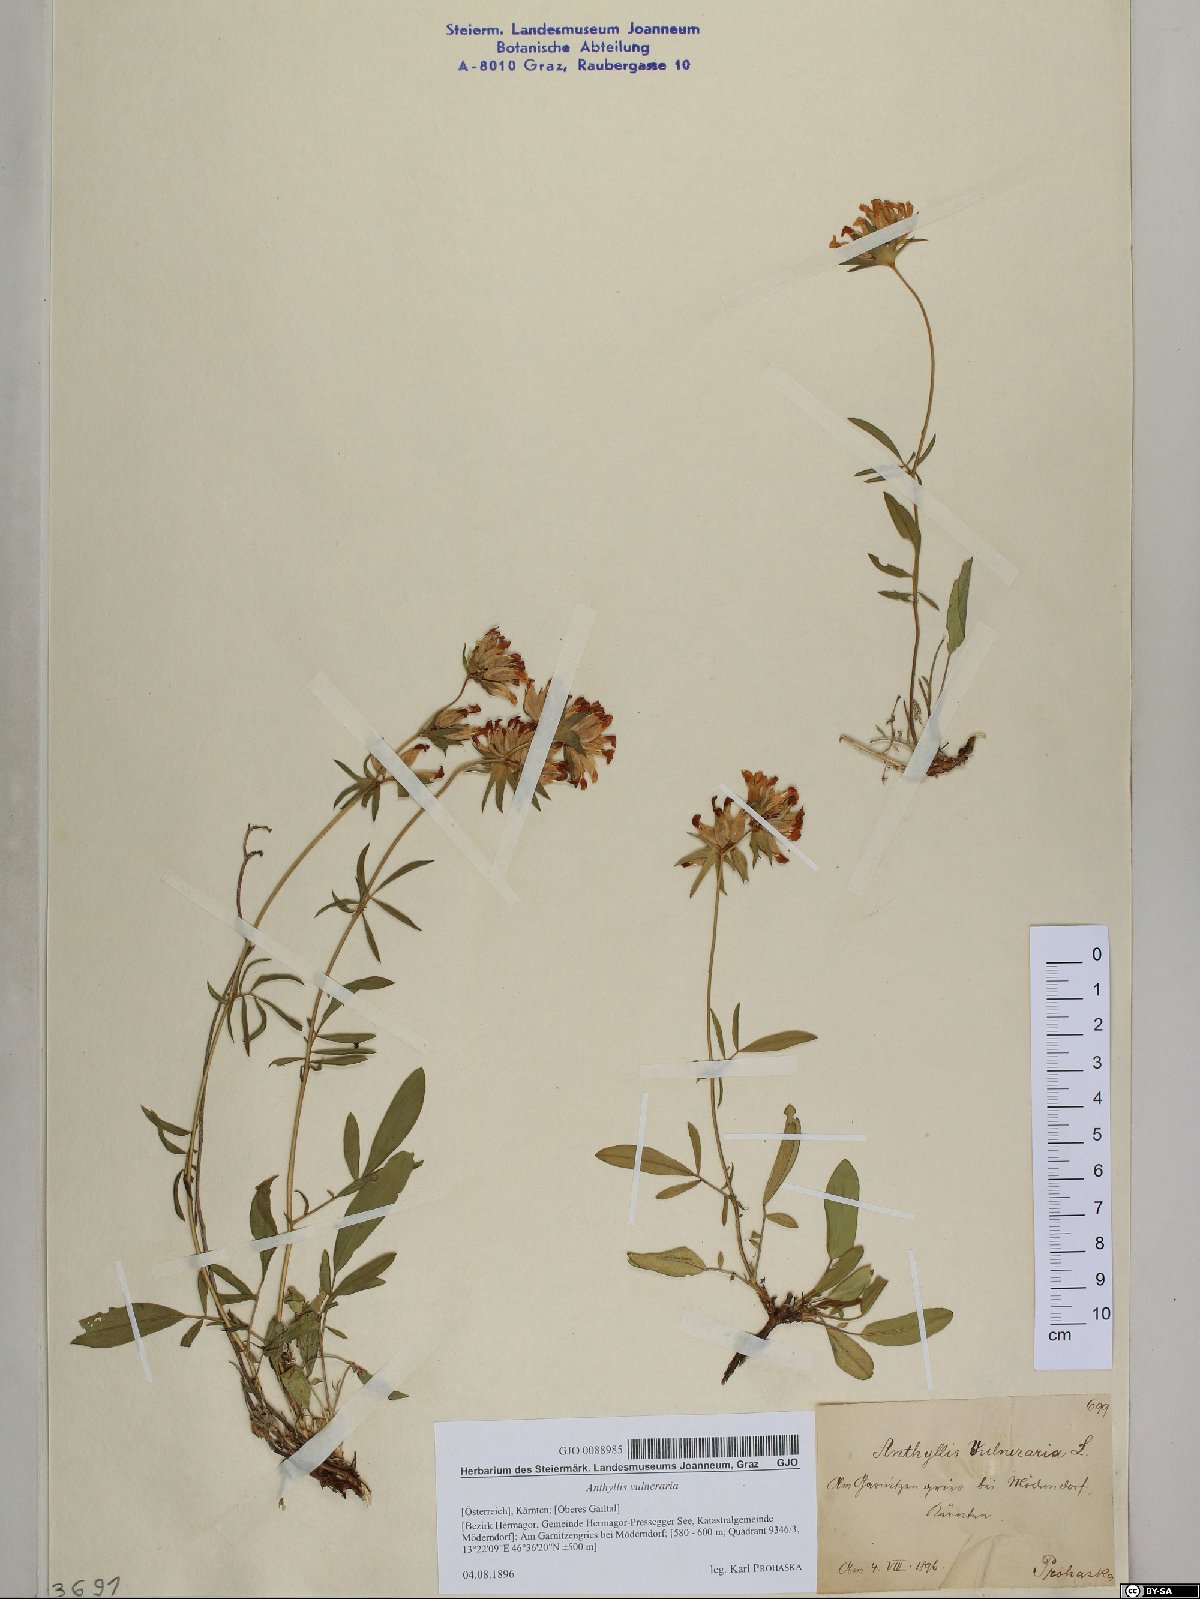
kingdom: Plantae
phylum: Tracheophyta
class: Magnoliopsida
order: Fabales
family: Fabaceae
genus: Anthyllis
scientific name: Anthyllis vulneraria
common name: Kidney vetch
